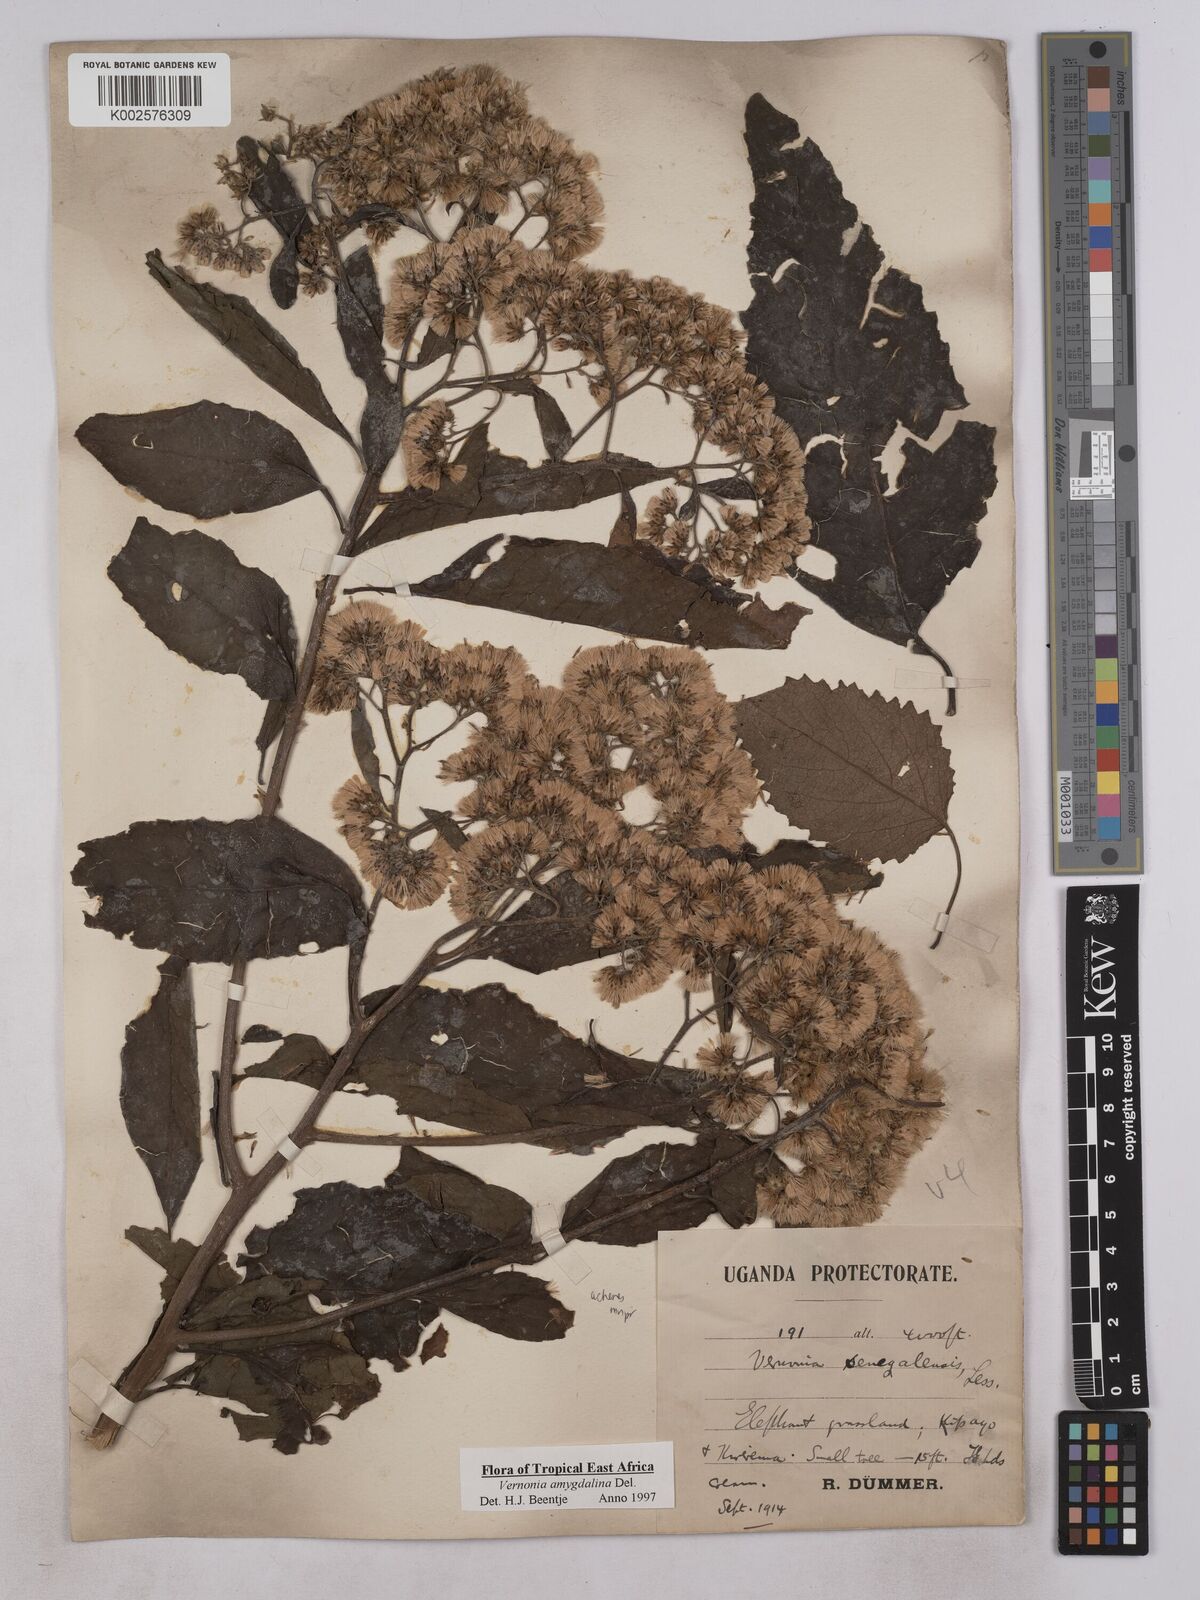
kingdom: Plantae
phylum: Tracheophyta
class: Magnoliopsida
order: Asterales
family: Asteraceae
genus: Gymnanthemum
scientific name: Gymnanthemum amygdalinum
